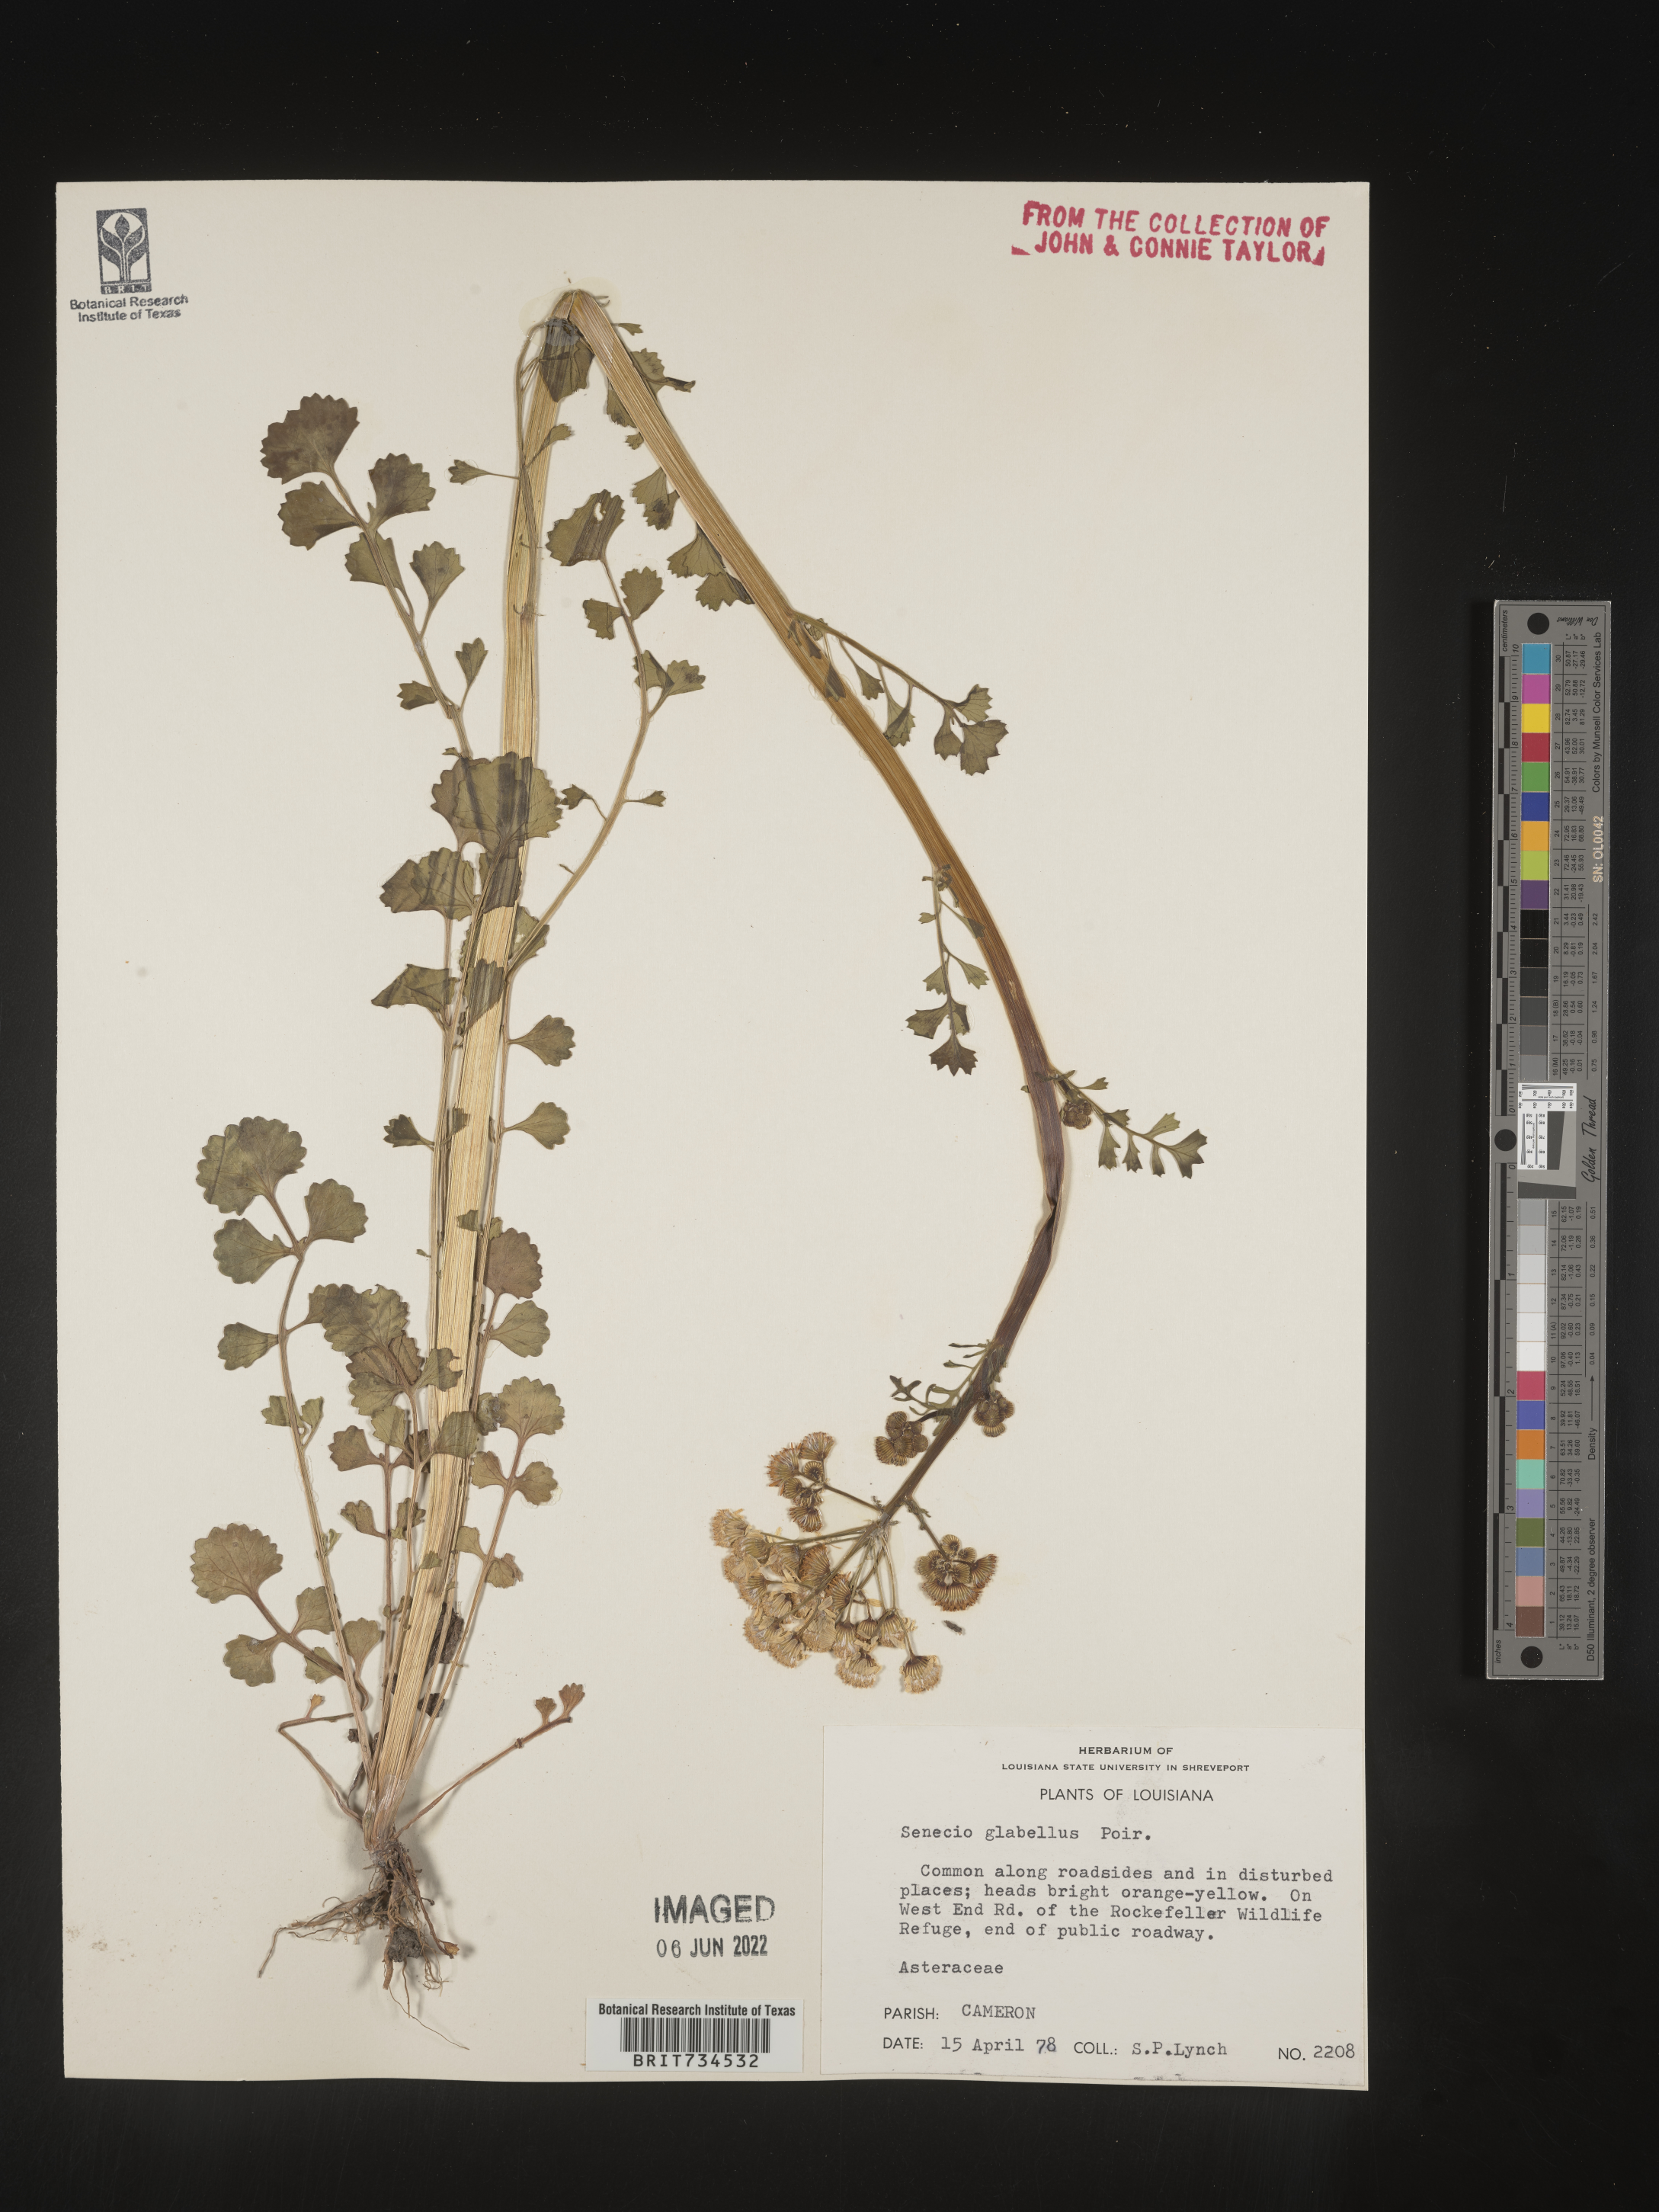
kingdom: Plantae
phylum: Tracheophyta
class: Magnoliopsida
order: Asterales
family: Asteraceae
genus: Packera
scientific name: Packera glabella
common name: Butterweed
